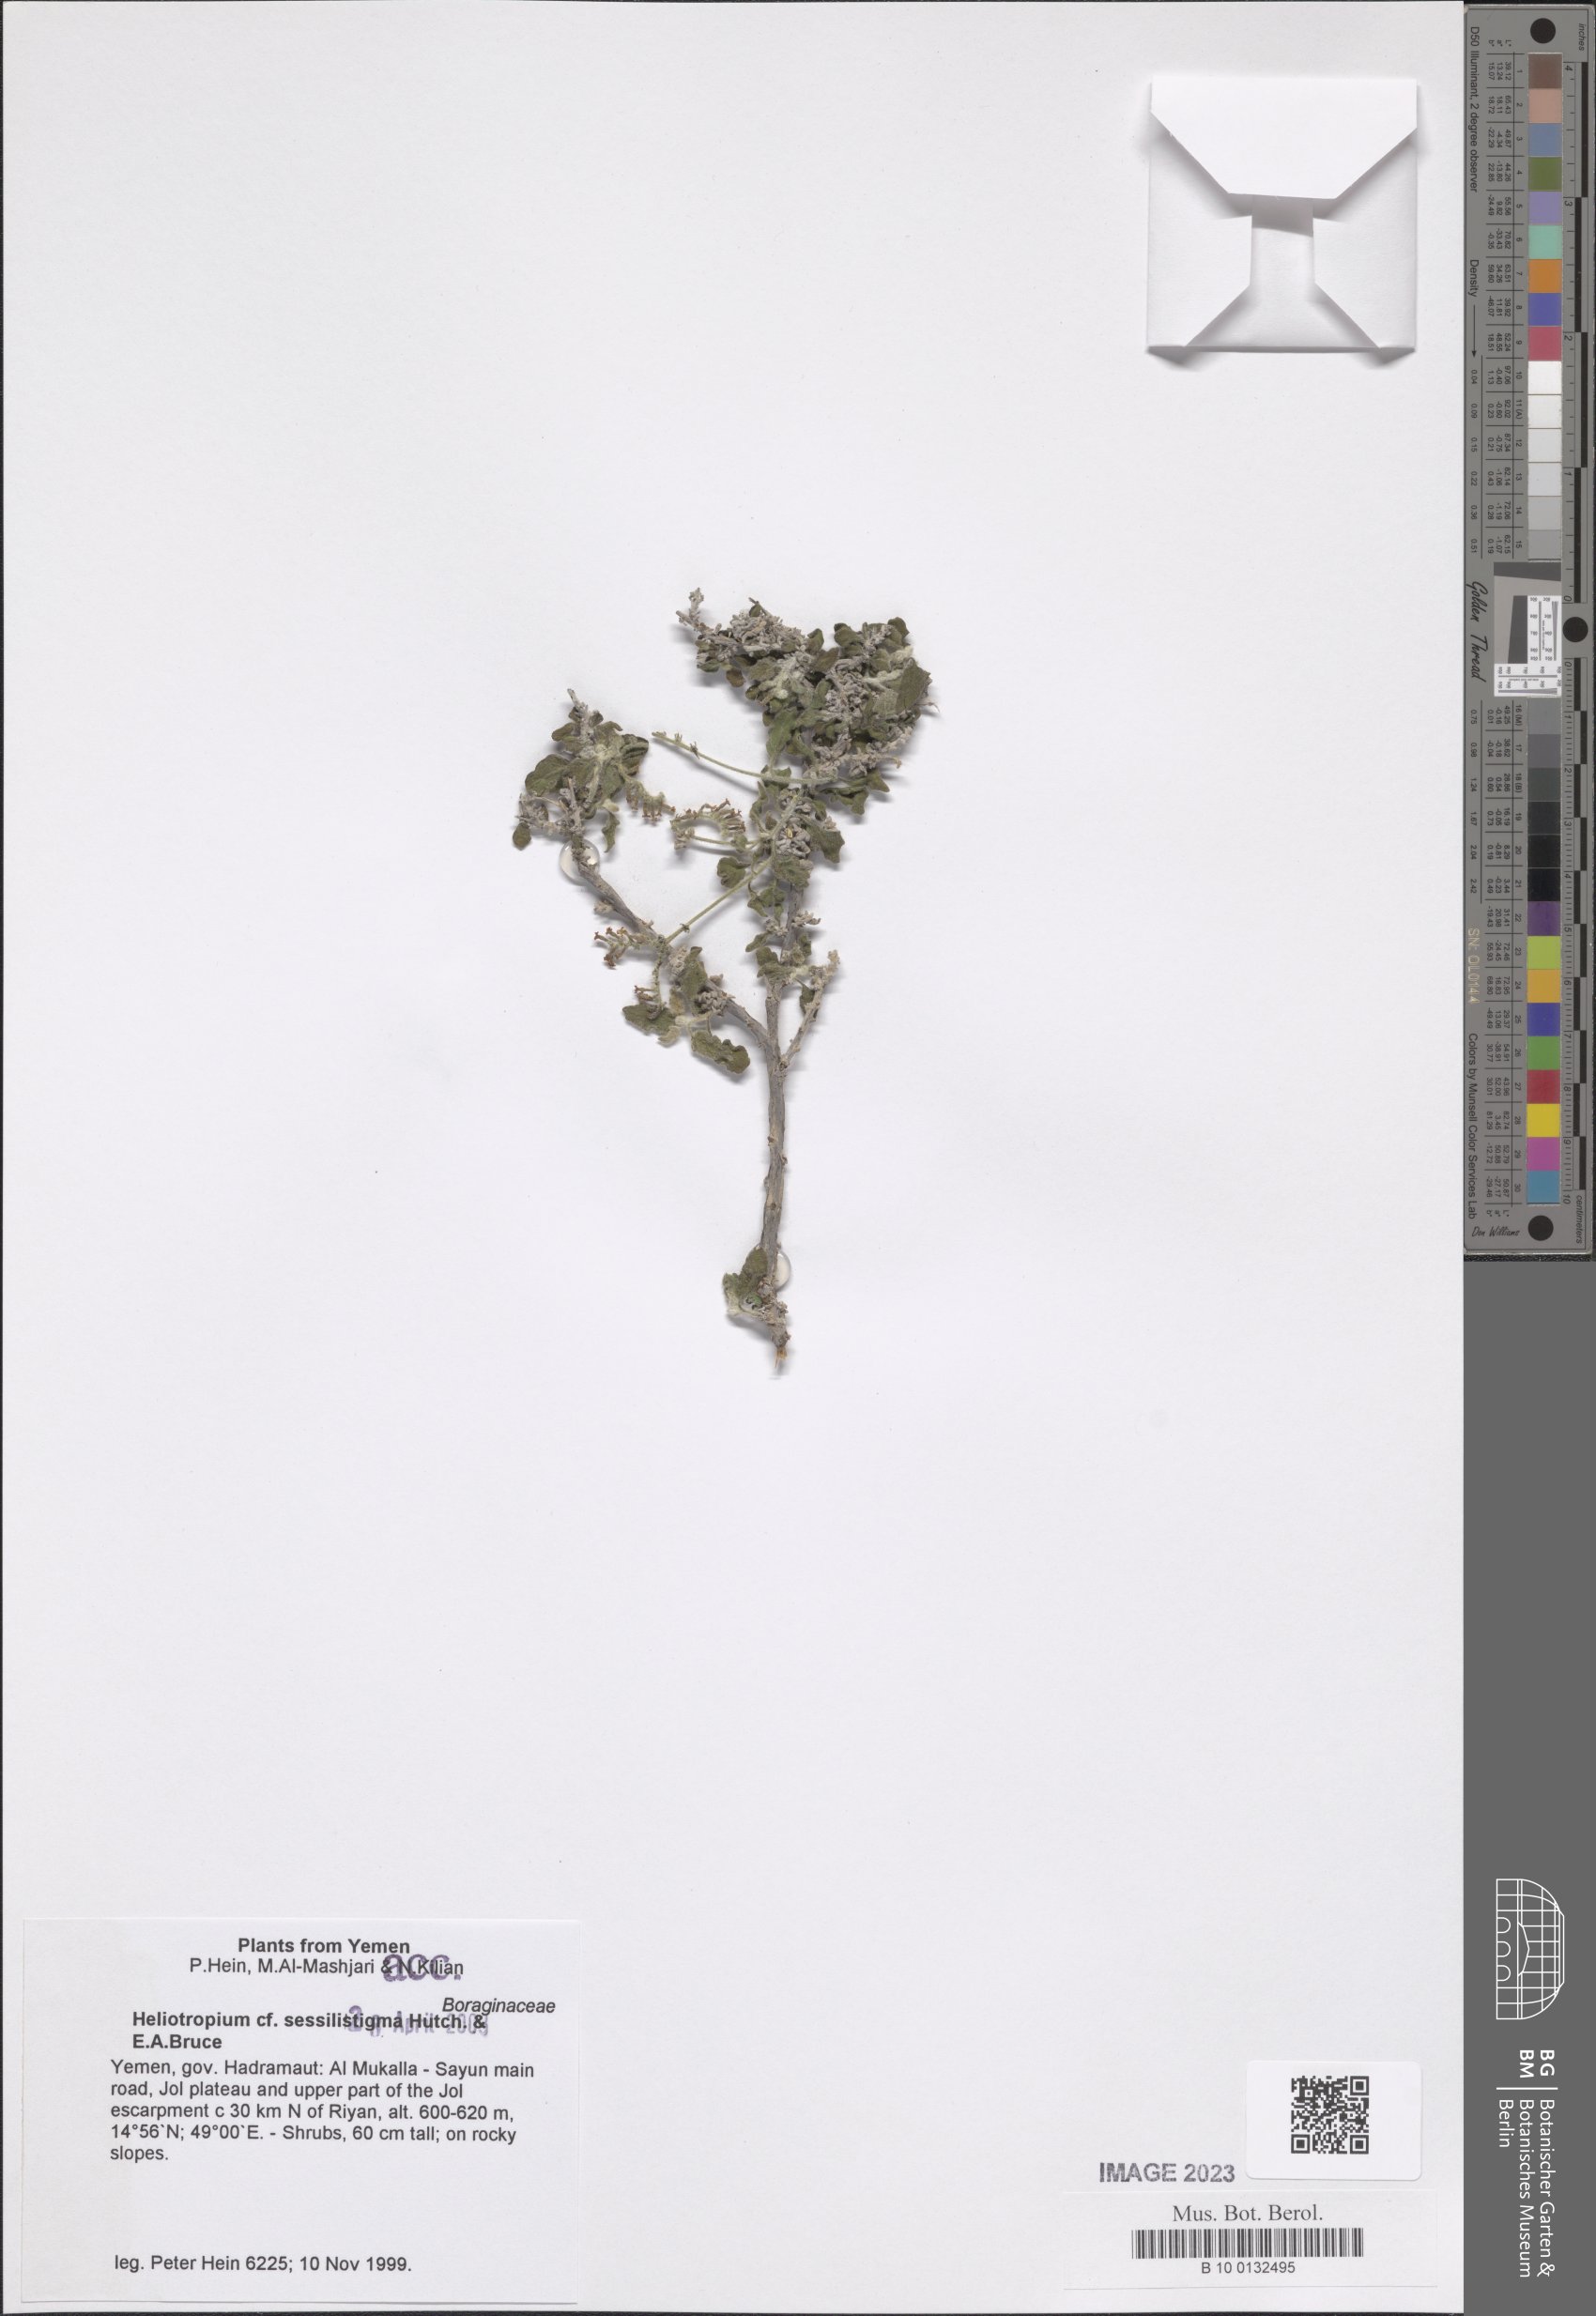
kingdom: Plantae
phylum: Tracheophyta
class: Magnoliopsida
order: Boraginales
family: Heliotropiaceae
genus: Euploca
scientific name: Euploca sessilistigma
